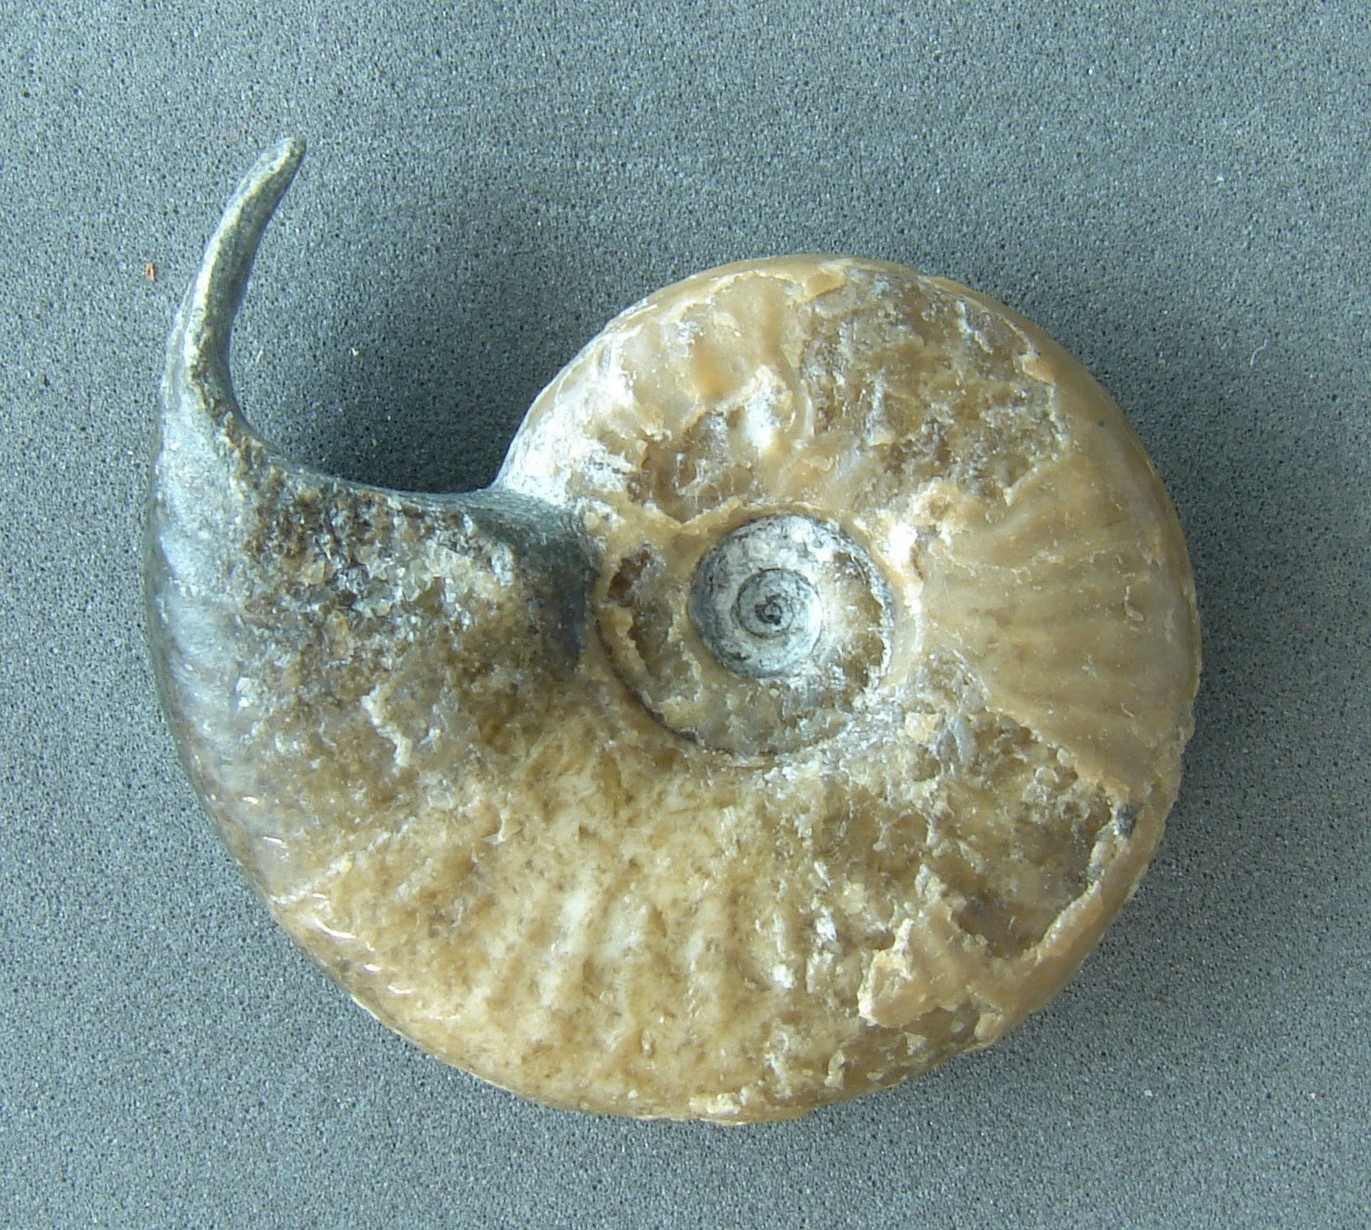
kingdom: Animalia
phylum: Mollusca
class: Cephalopoda
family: Hildoceratidae
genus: Eleganticeras
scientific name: Eleganticeras elegantulum
